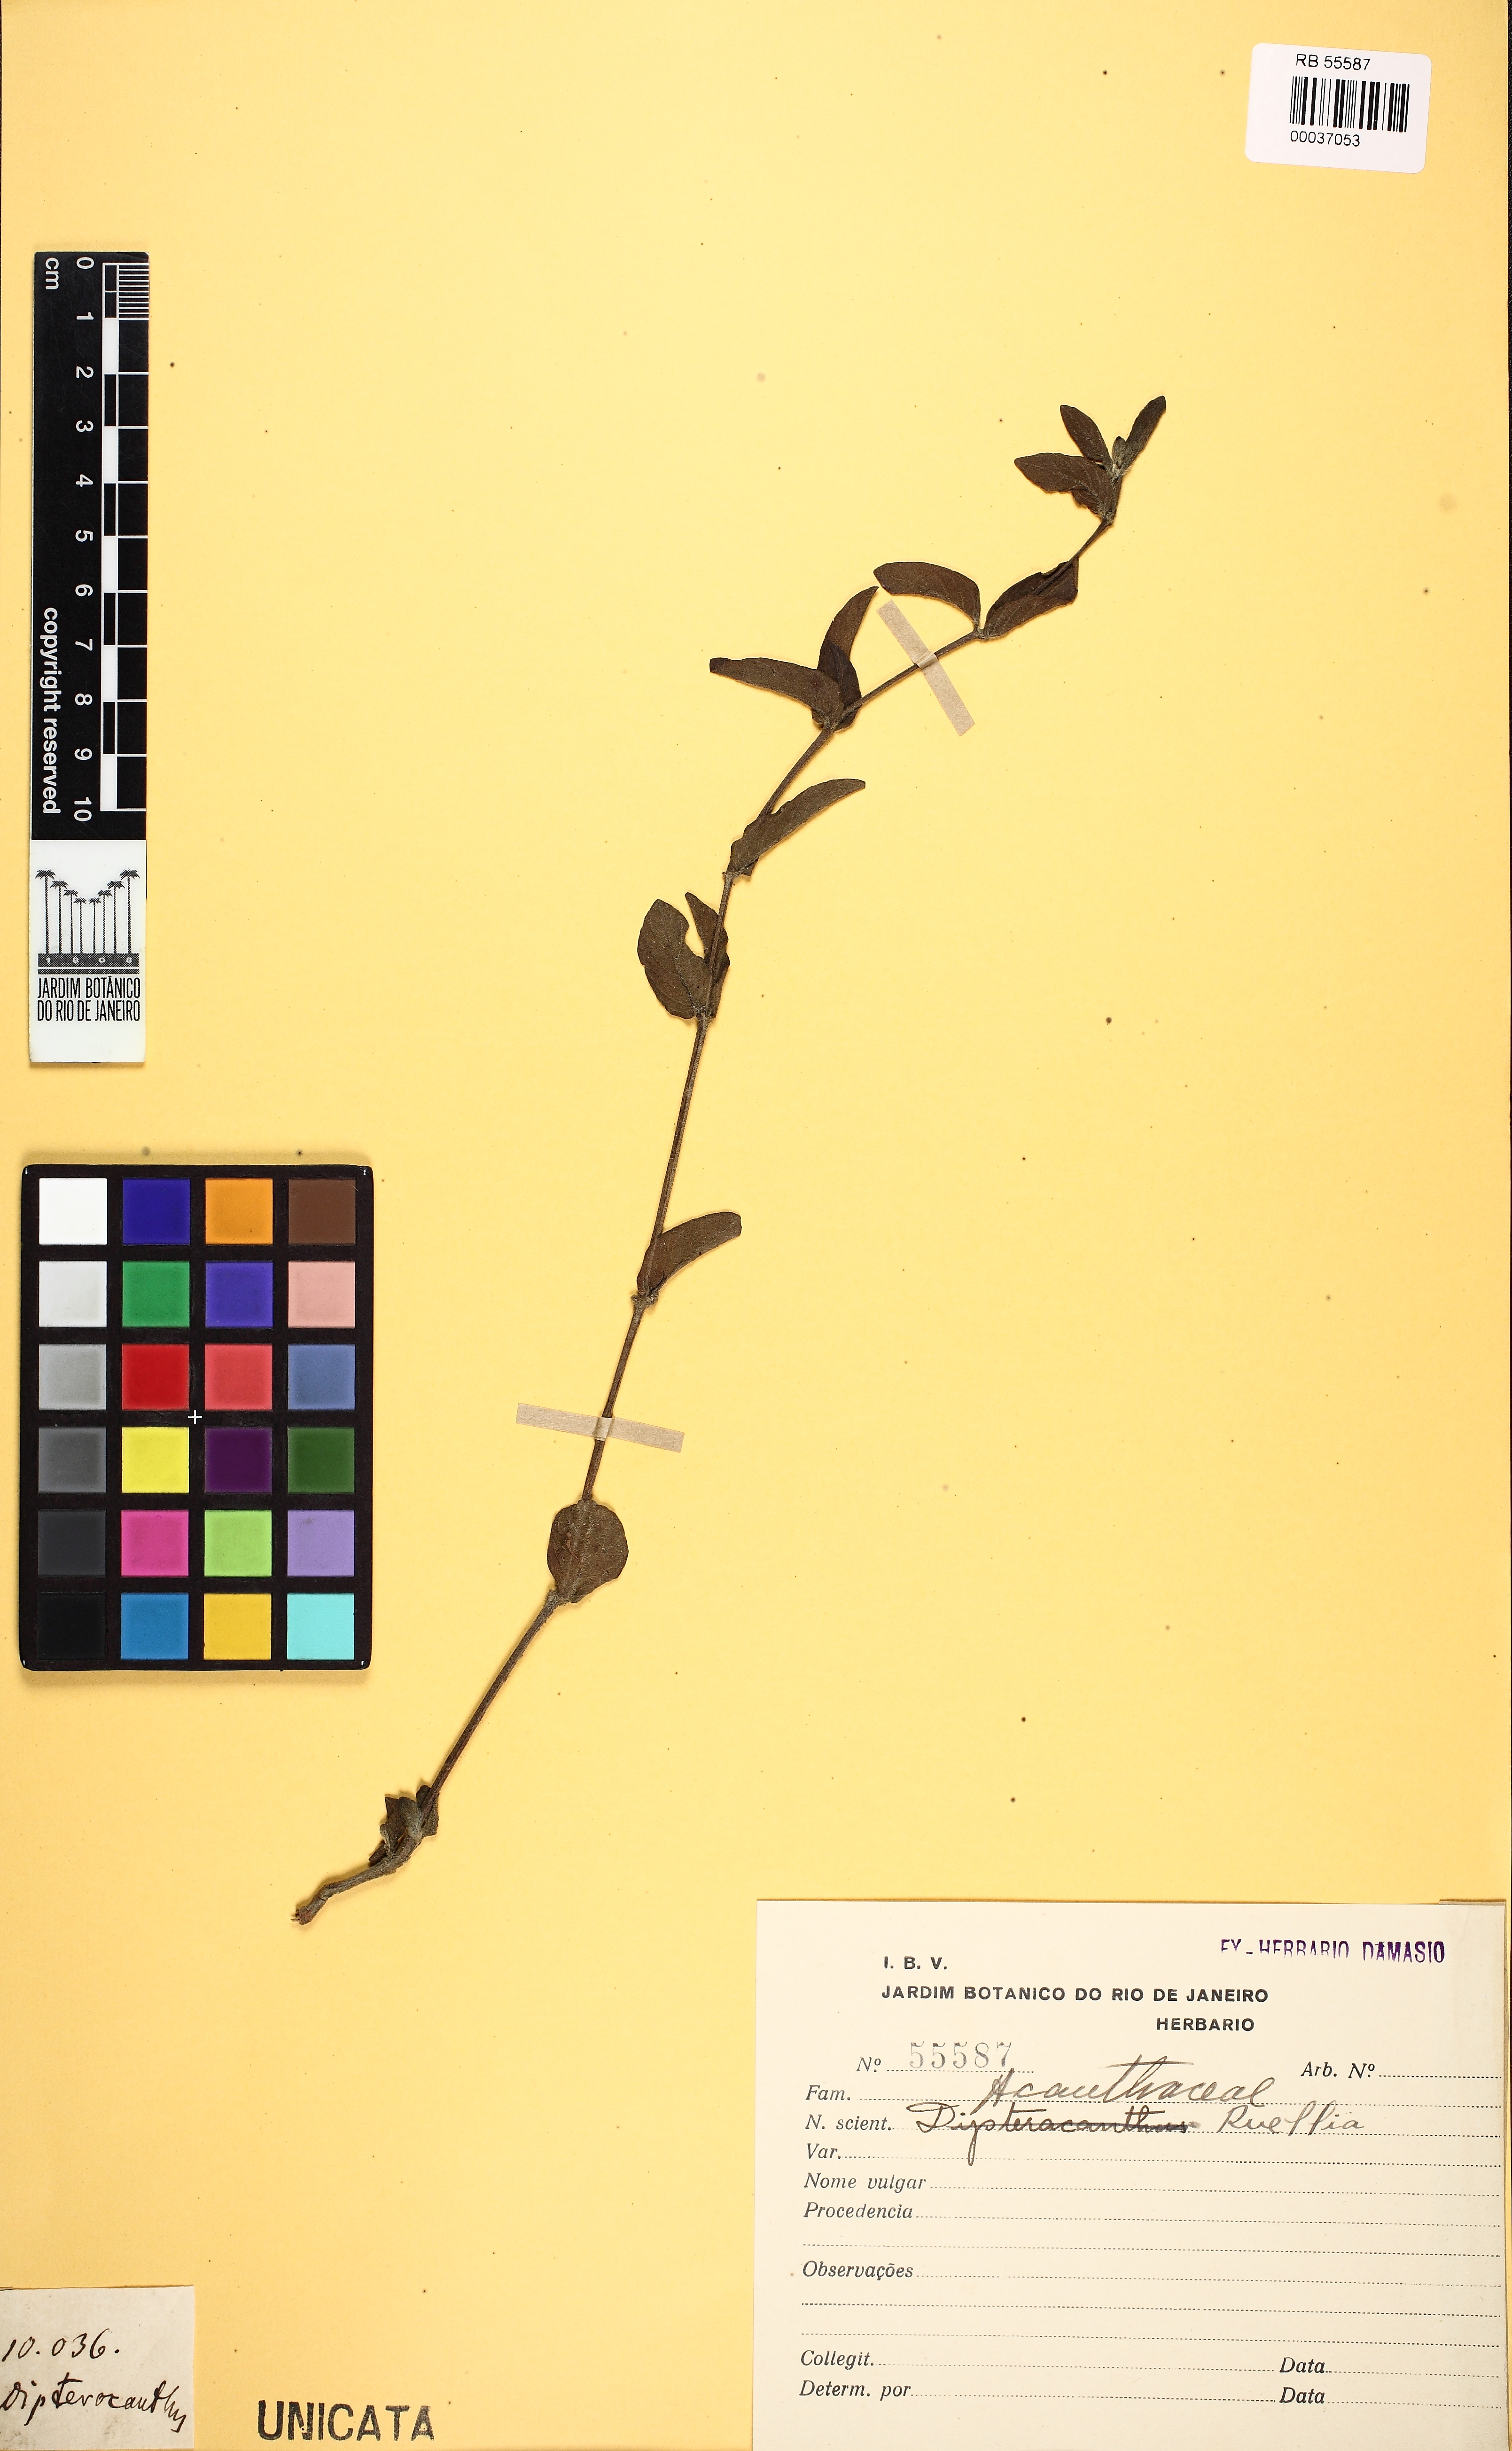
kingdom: Plantae
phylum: Tracheophyta
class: Magnoliopsida
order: Lamiales
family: Acanthaceae
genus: Ruellia
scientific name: Ruellia
